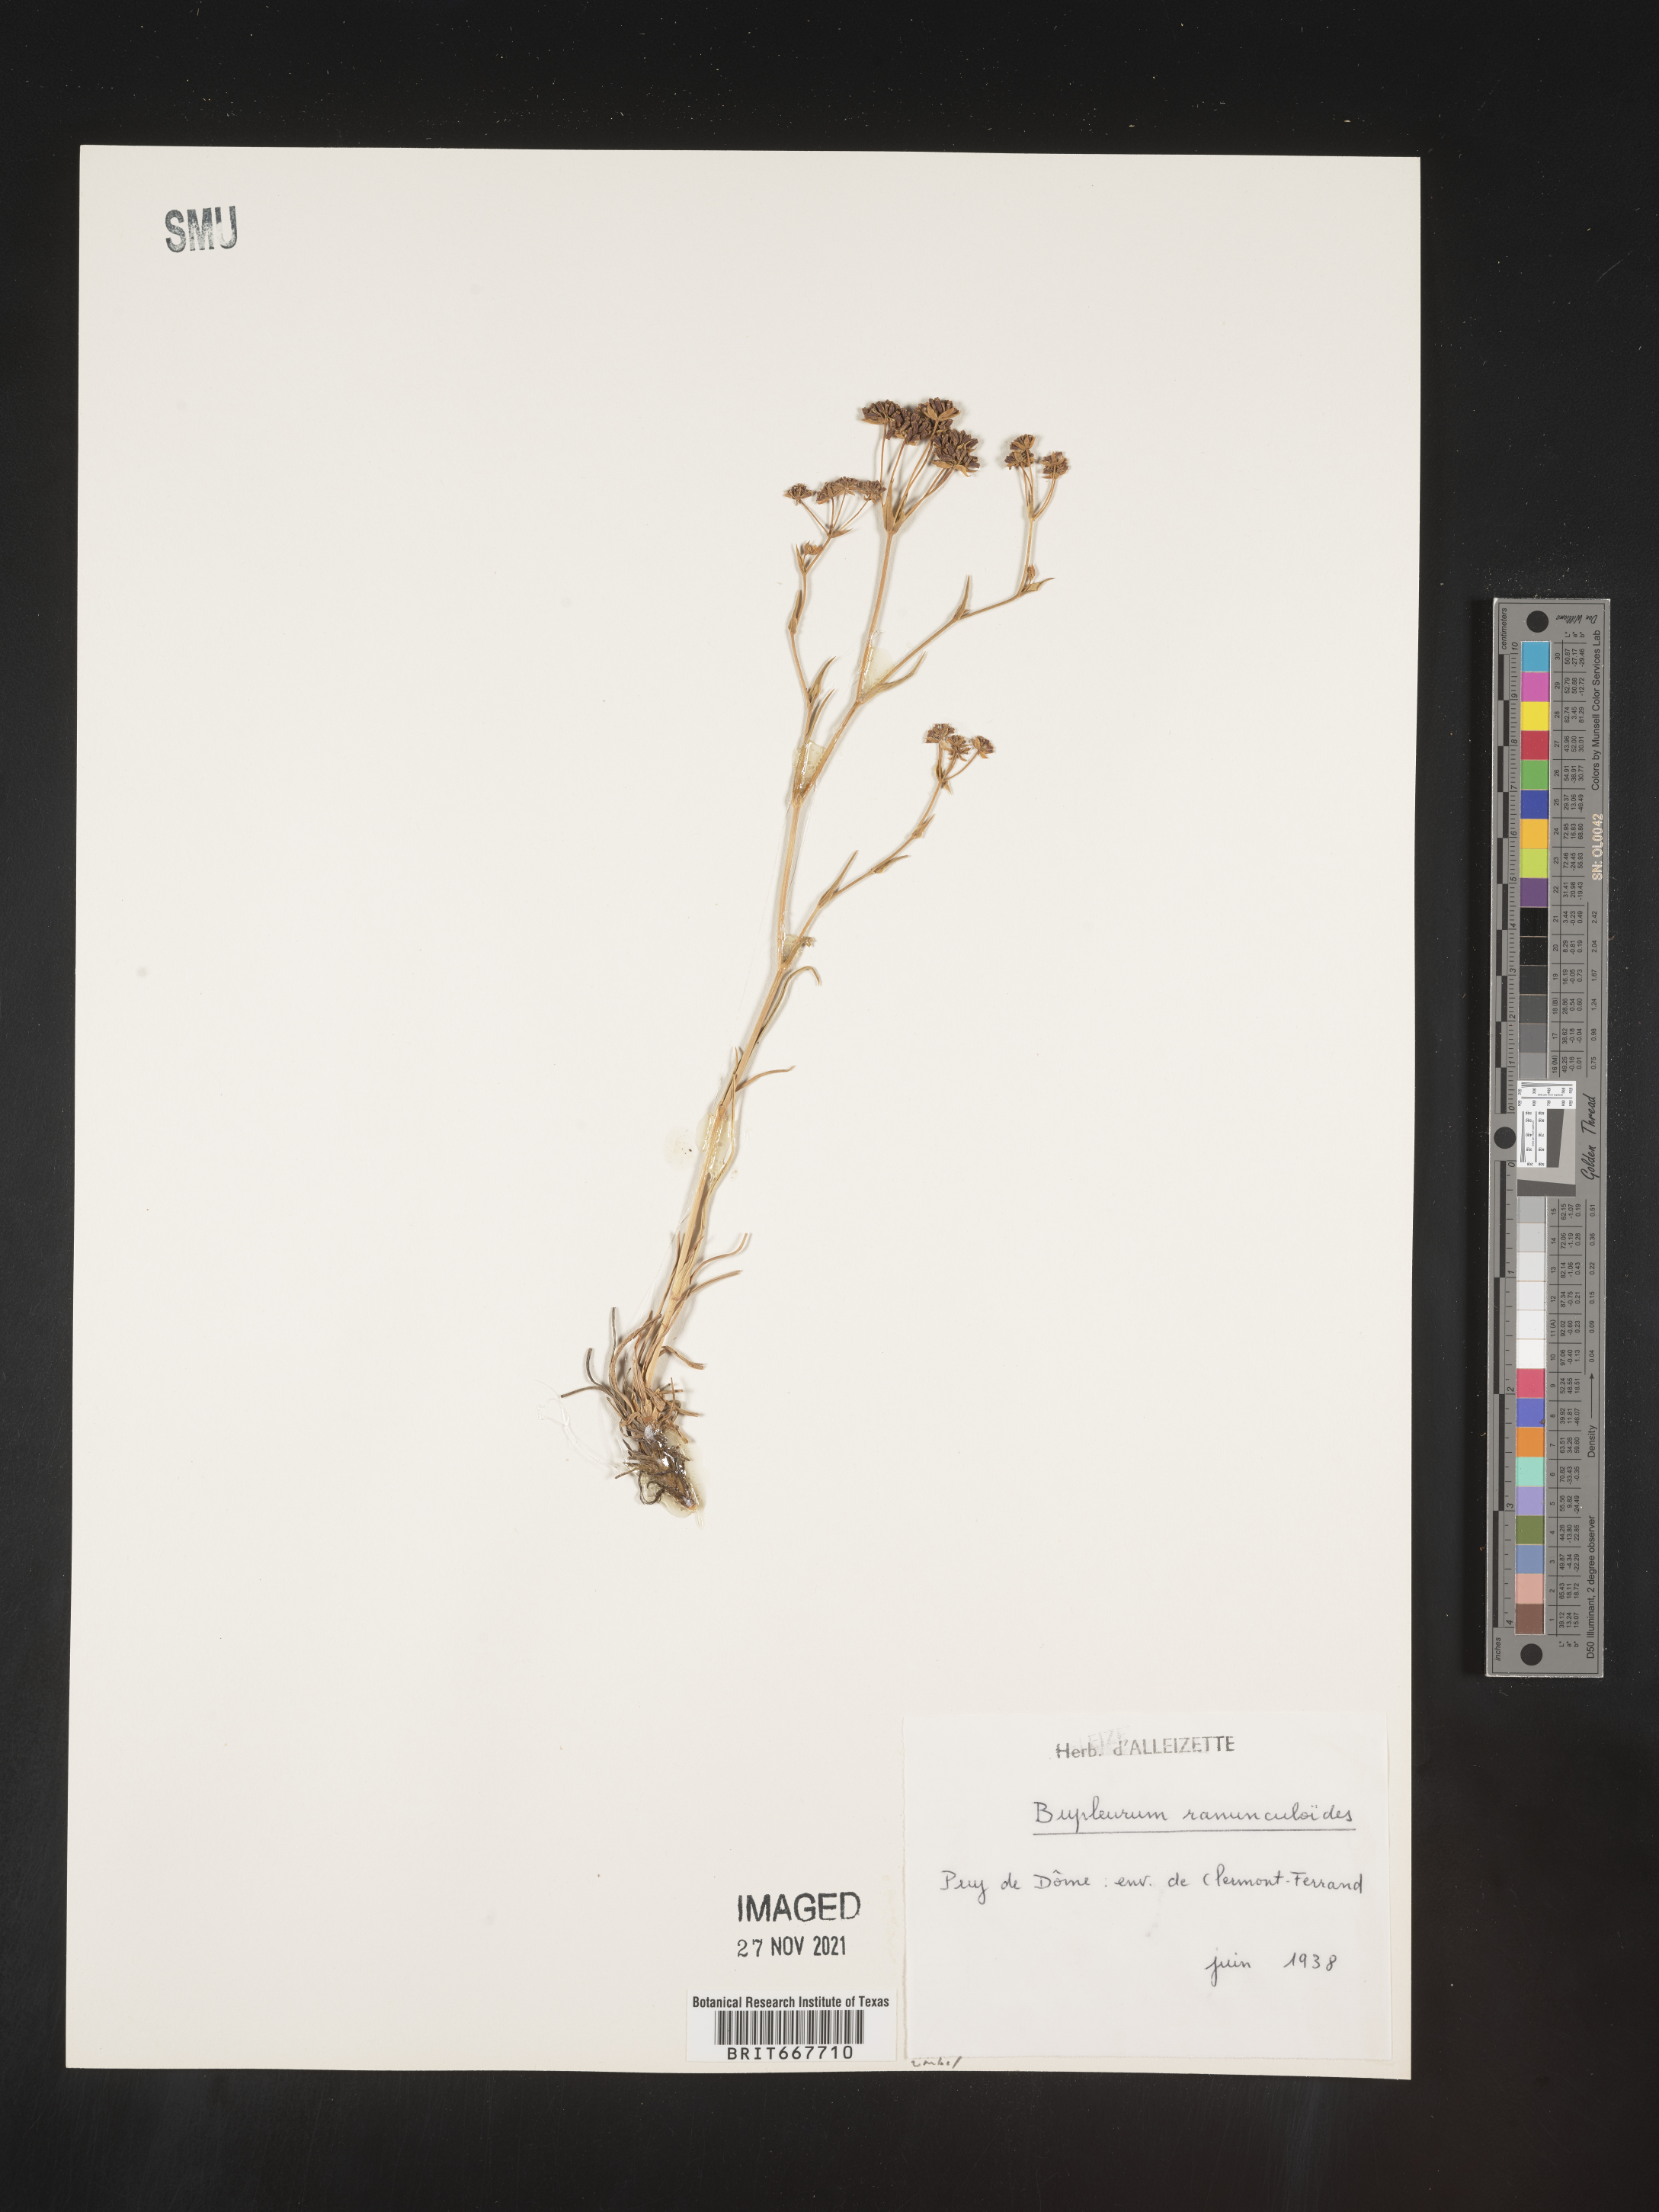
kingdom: Plantae
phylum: Tracheophyta
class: Magnoliopsida
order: Apiales
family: Apiaceae
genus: Bupleurum
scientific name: Bupleurum
